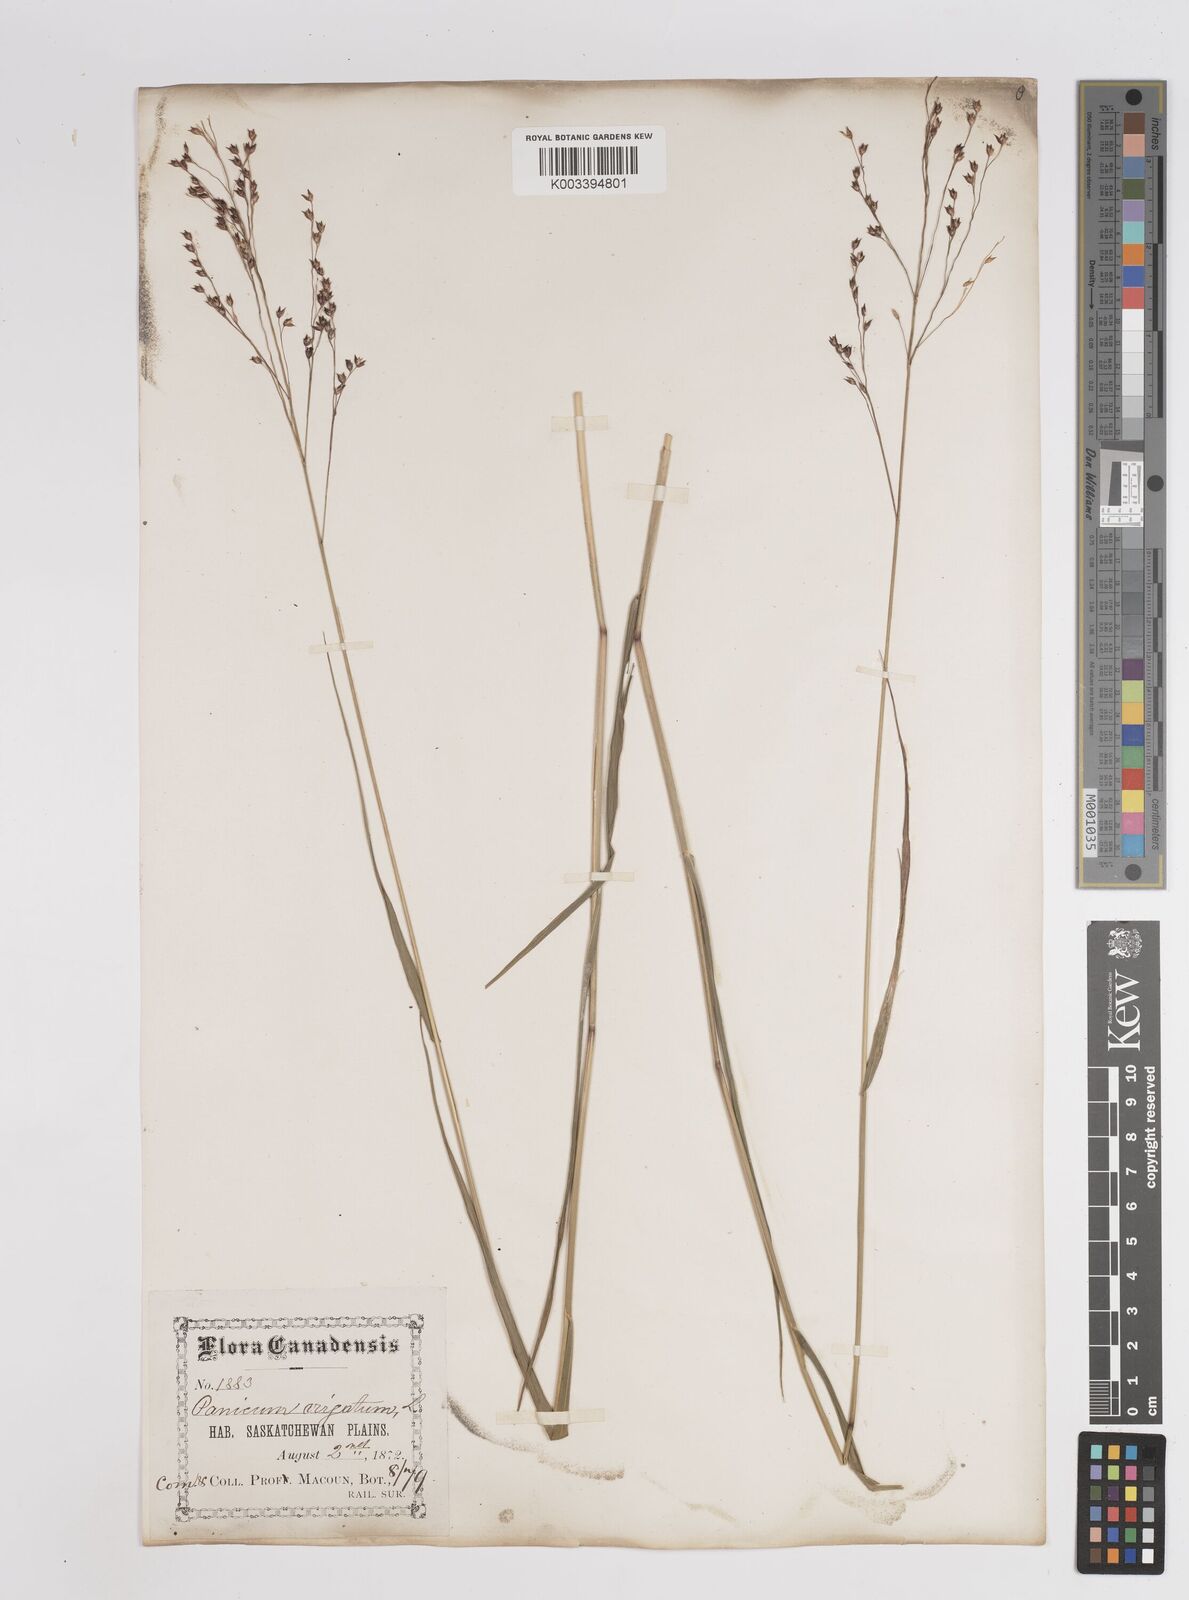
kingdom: Plantae
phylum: Tracheophyta
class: Liliopsida
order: Poales
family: Poaceae
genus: Panicum
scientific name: Panicum virgatum
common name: Switchgrass
